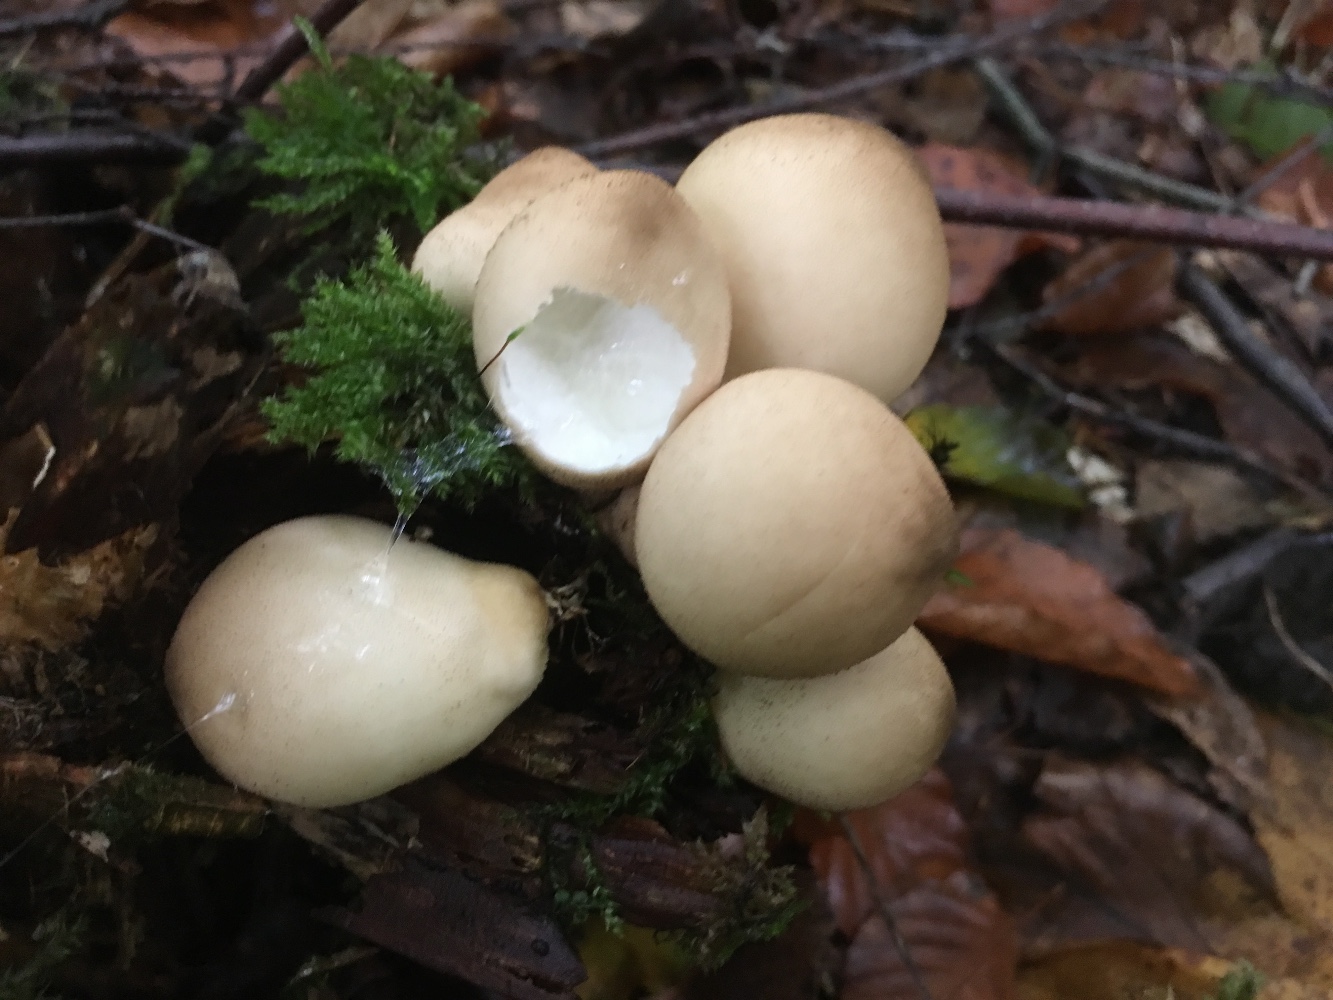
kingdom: Fungi
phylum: Basidiomycota
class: Agaricomycetes
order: Agaricales
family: Lycoperdaceae
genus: Apioperdon
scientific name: Apioperdon pyriforme
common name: pære-støvbold
